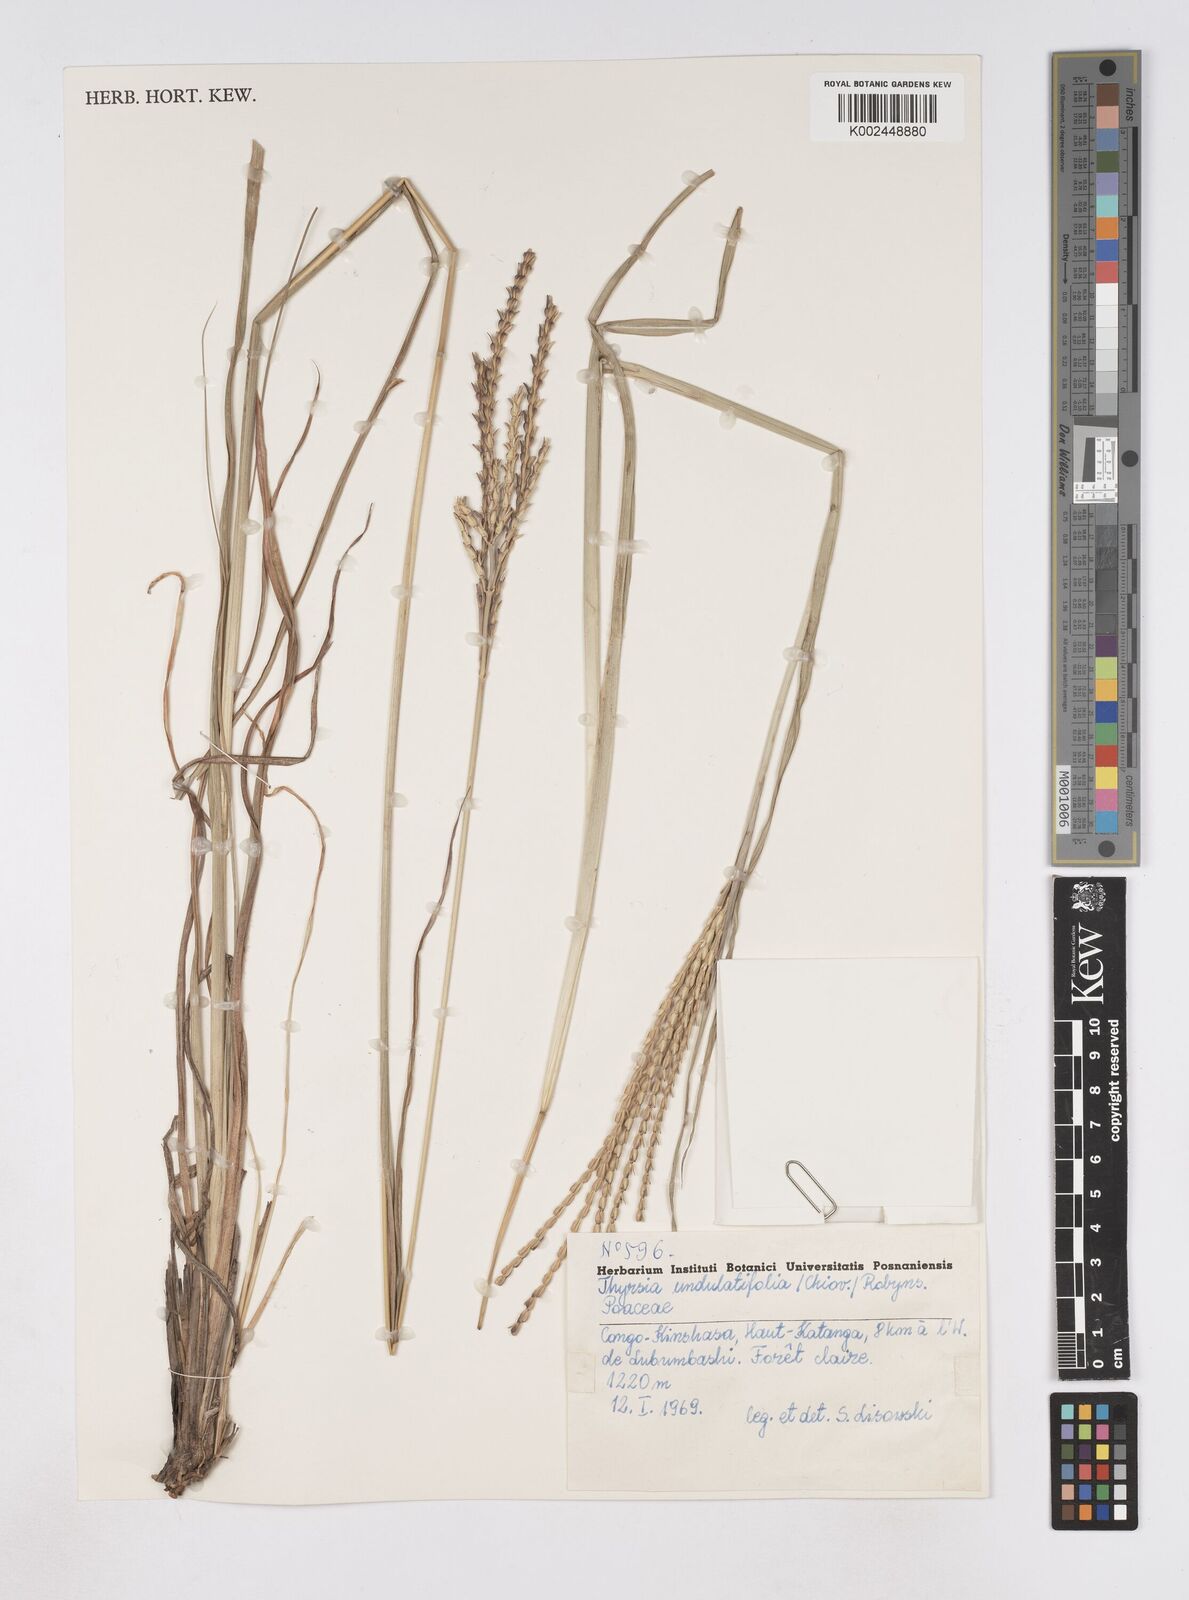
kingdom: Plantae
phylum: Tracheophyta
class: Liliopsida
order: Poales
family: Poaceae
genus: Thyrsia
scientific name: Thyrsia huillensis
